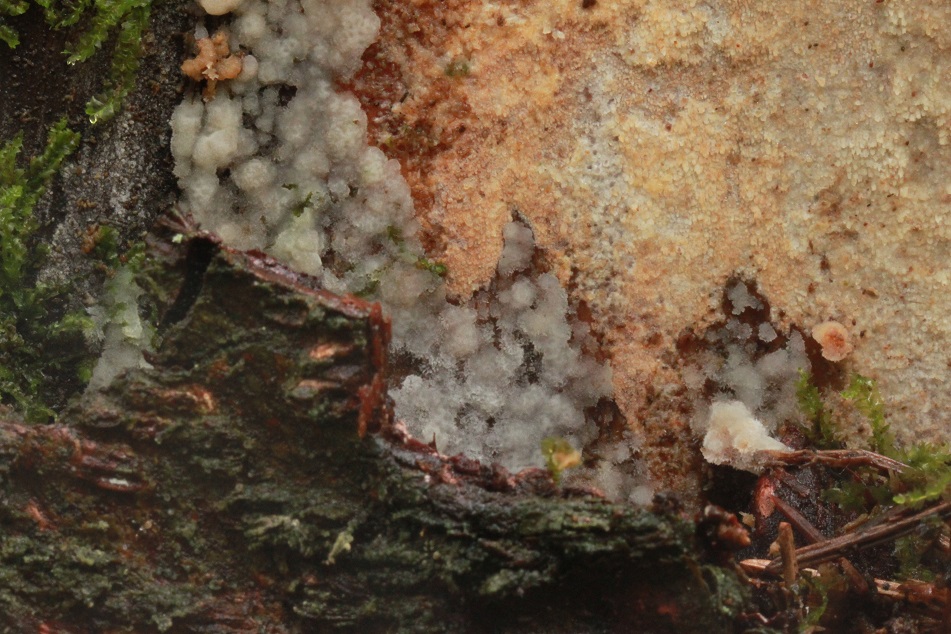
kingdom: Fungi
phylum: Basidiomycota
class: Agaricomycetes
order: Hymenochaetales
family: Rickenellaceae
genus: Resinicium
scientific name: Resinicium bicolor
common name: almindelig vokstand
